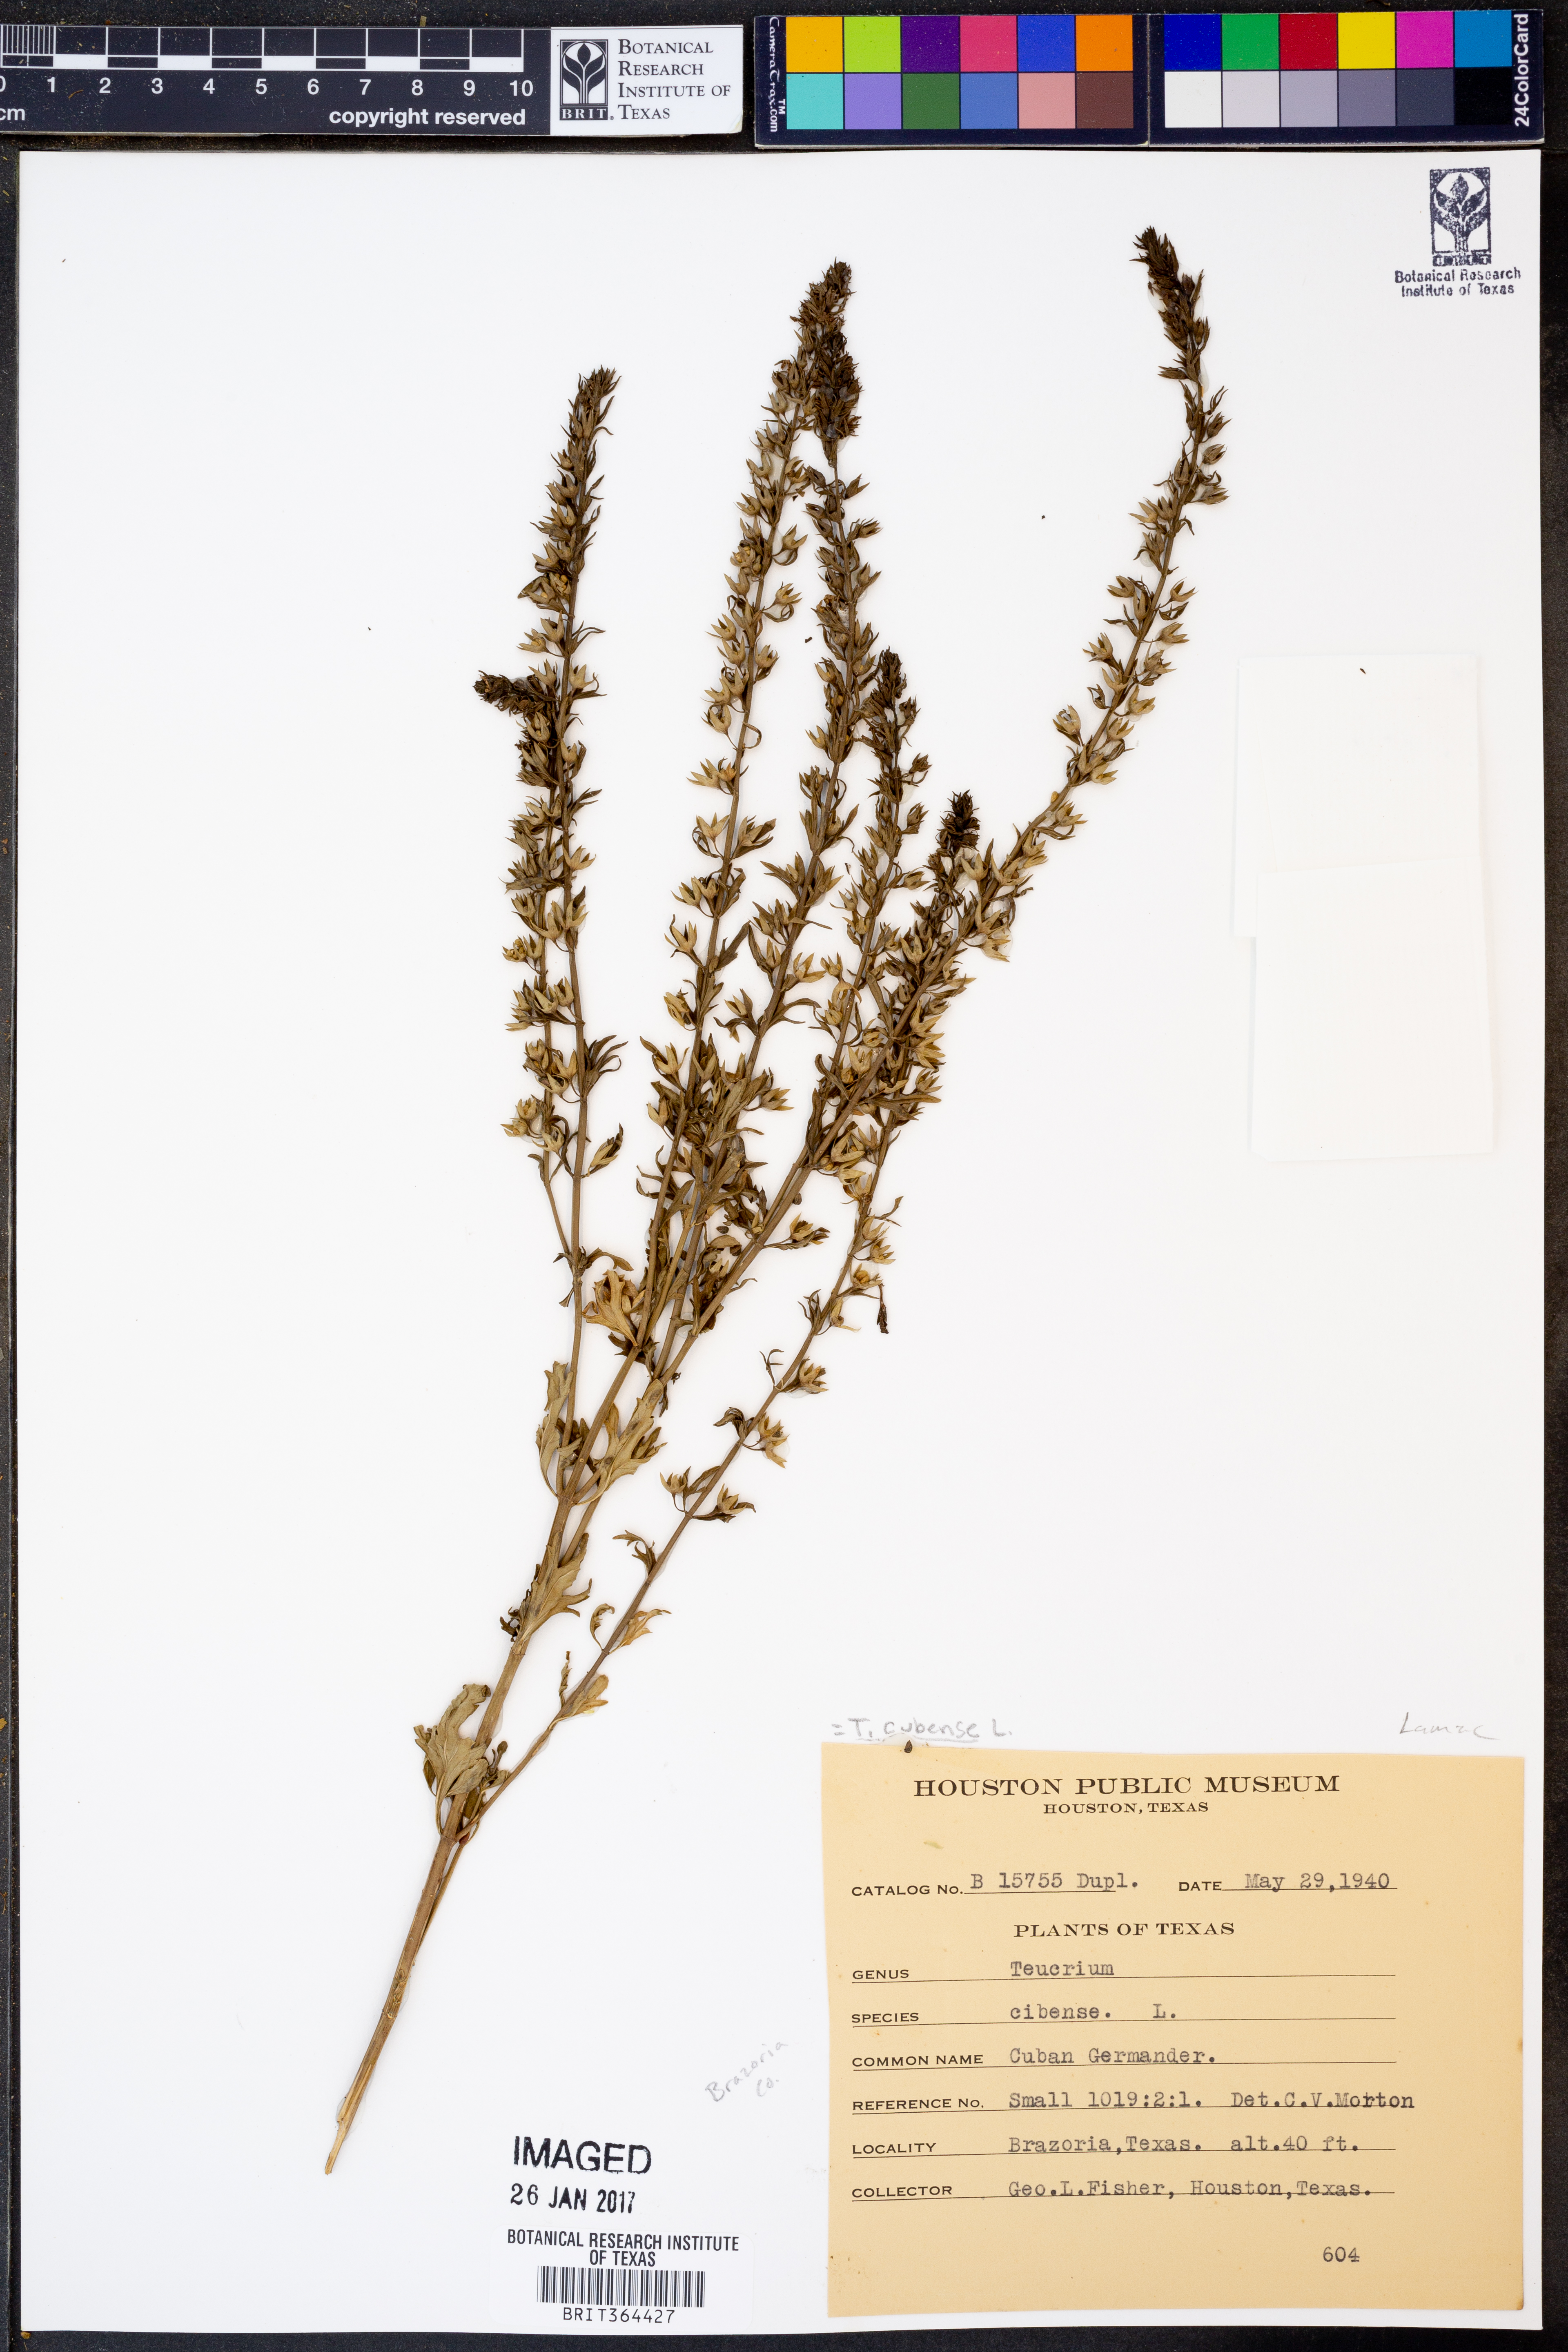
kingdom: Plantae
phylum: Tracheophyta
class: Magnoliopsida
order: Lamiales
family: Lamiaceae
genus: Teucrium
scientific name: Teucrium cubense
